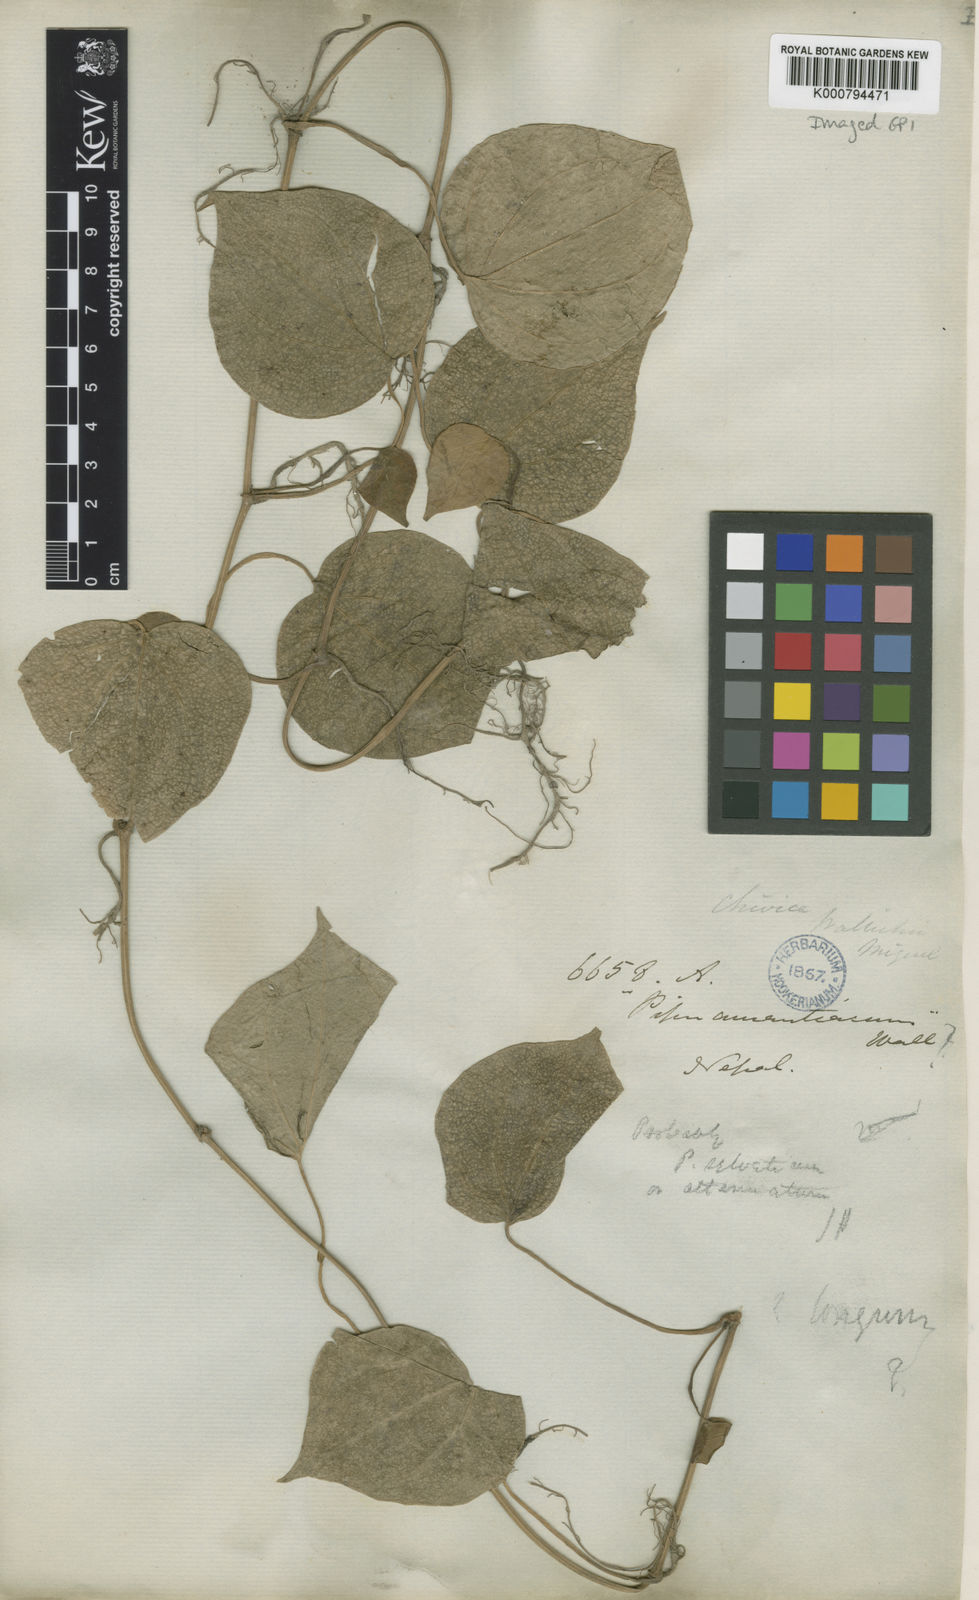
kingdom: Plantae
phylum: Tracheophyta
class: Magnoliopsida
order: Piperales
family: Piperaceae
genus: Piper
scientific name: Piper wallichii
